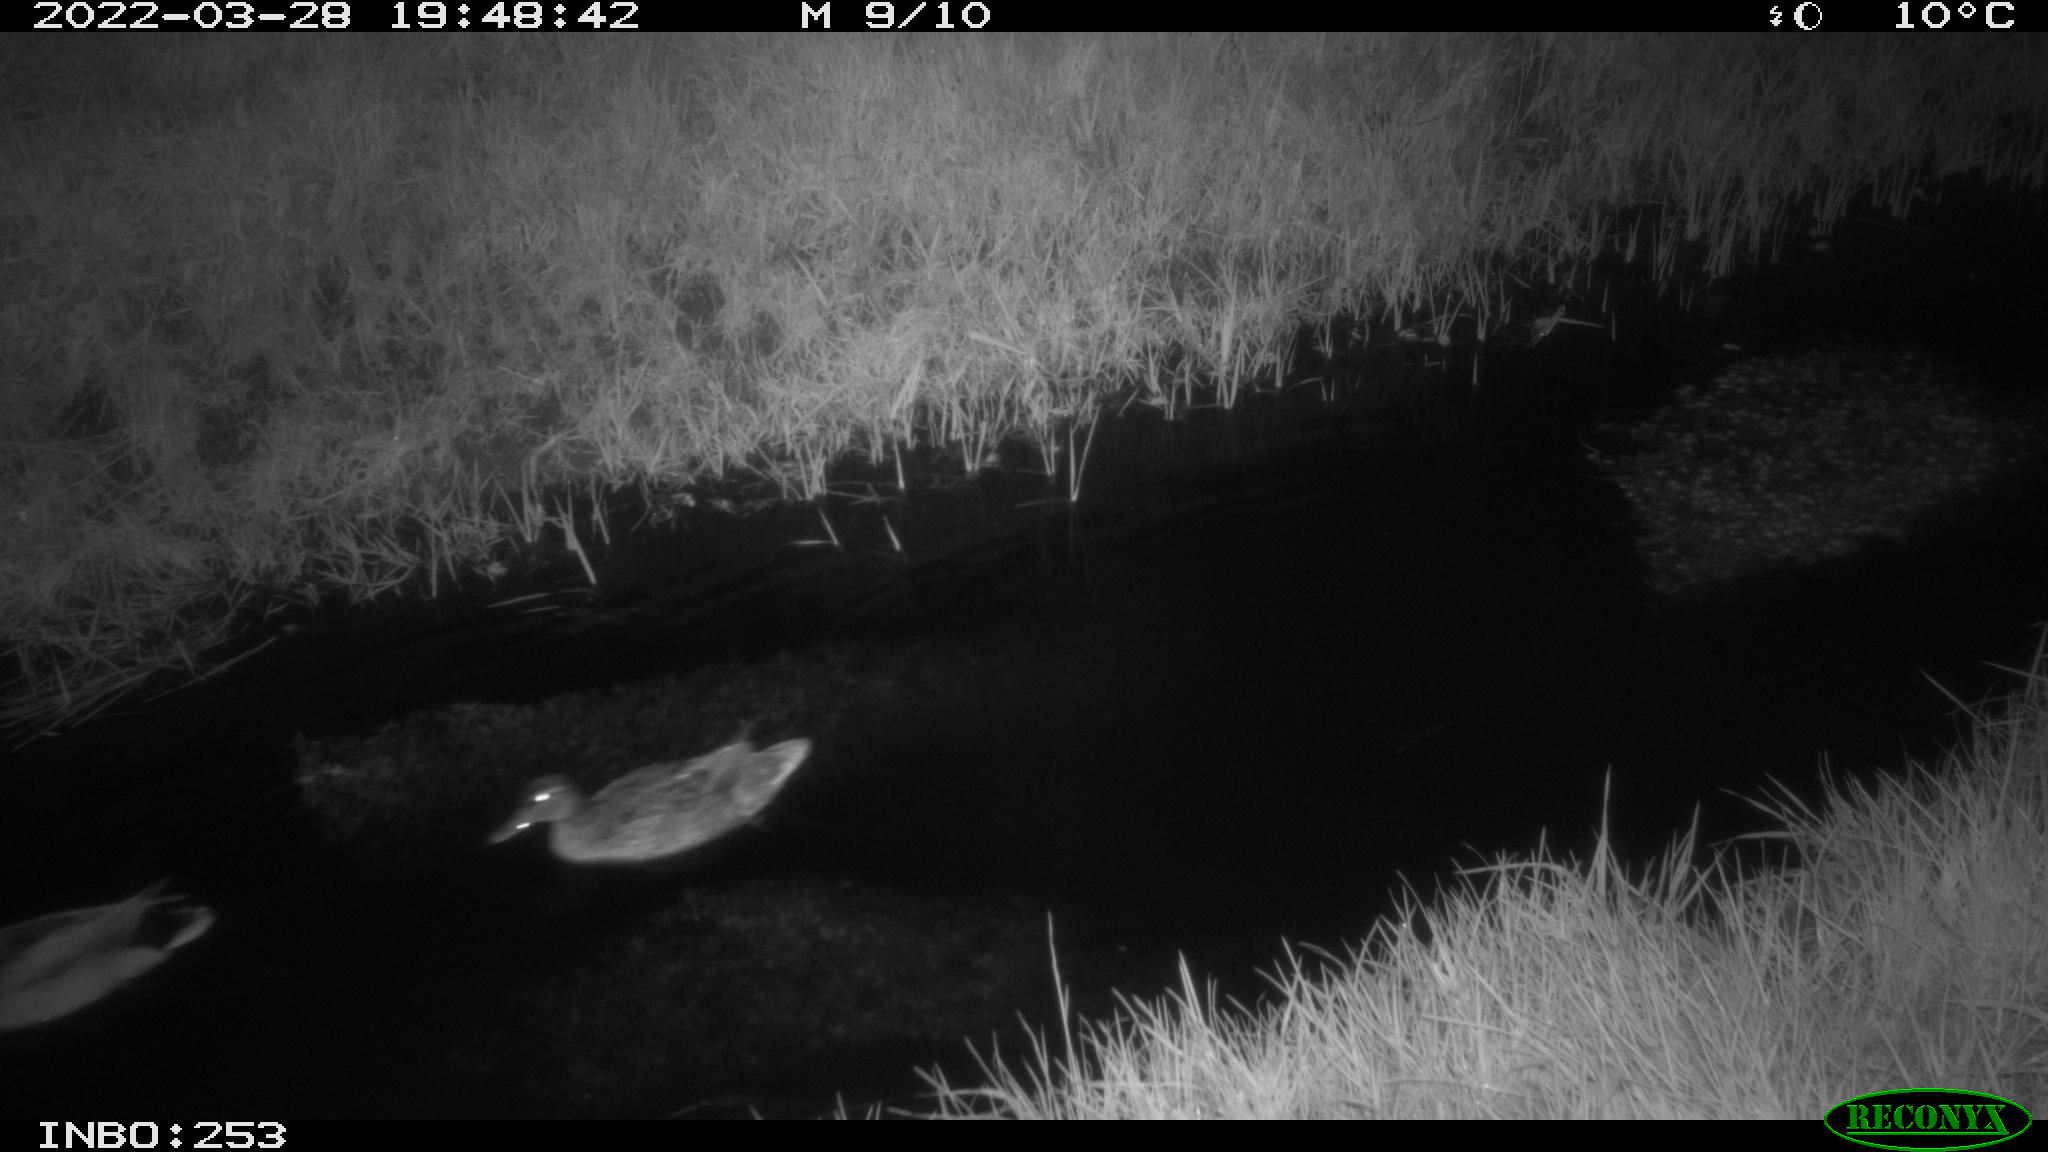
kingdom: Animalia
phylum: Chordata
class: Aves
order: Anseriformes
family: Anatidae
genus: Anas
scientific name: Anas platyrhynchos
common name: Mallard
